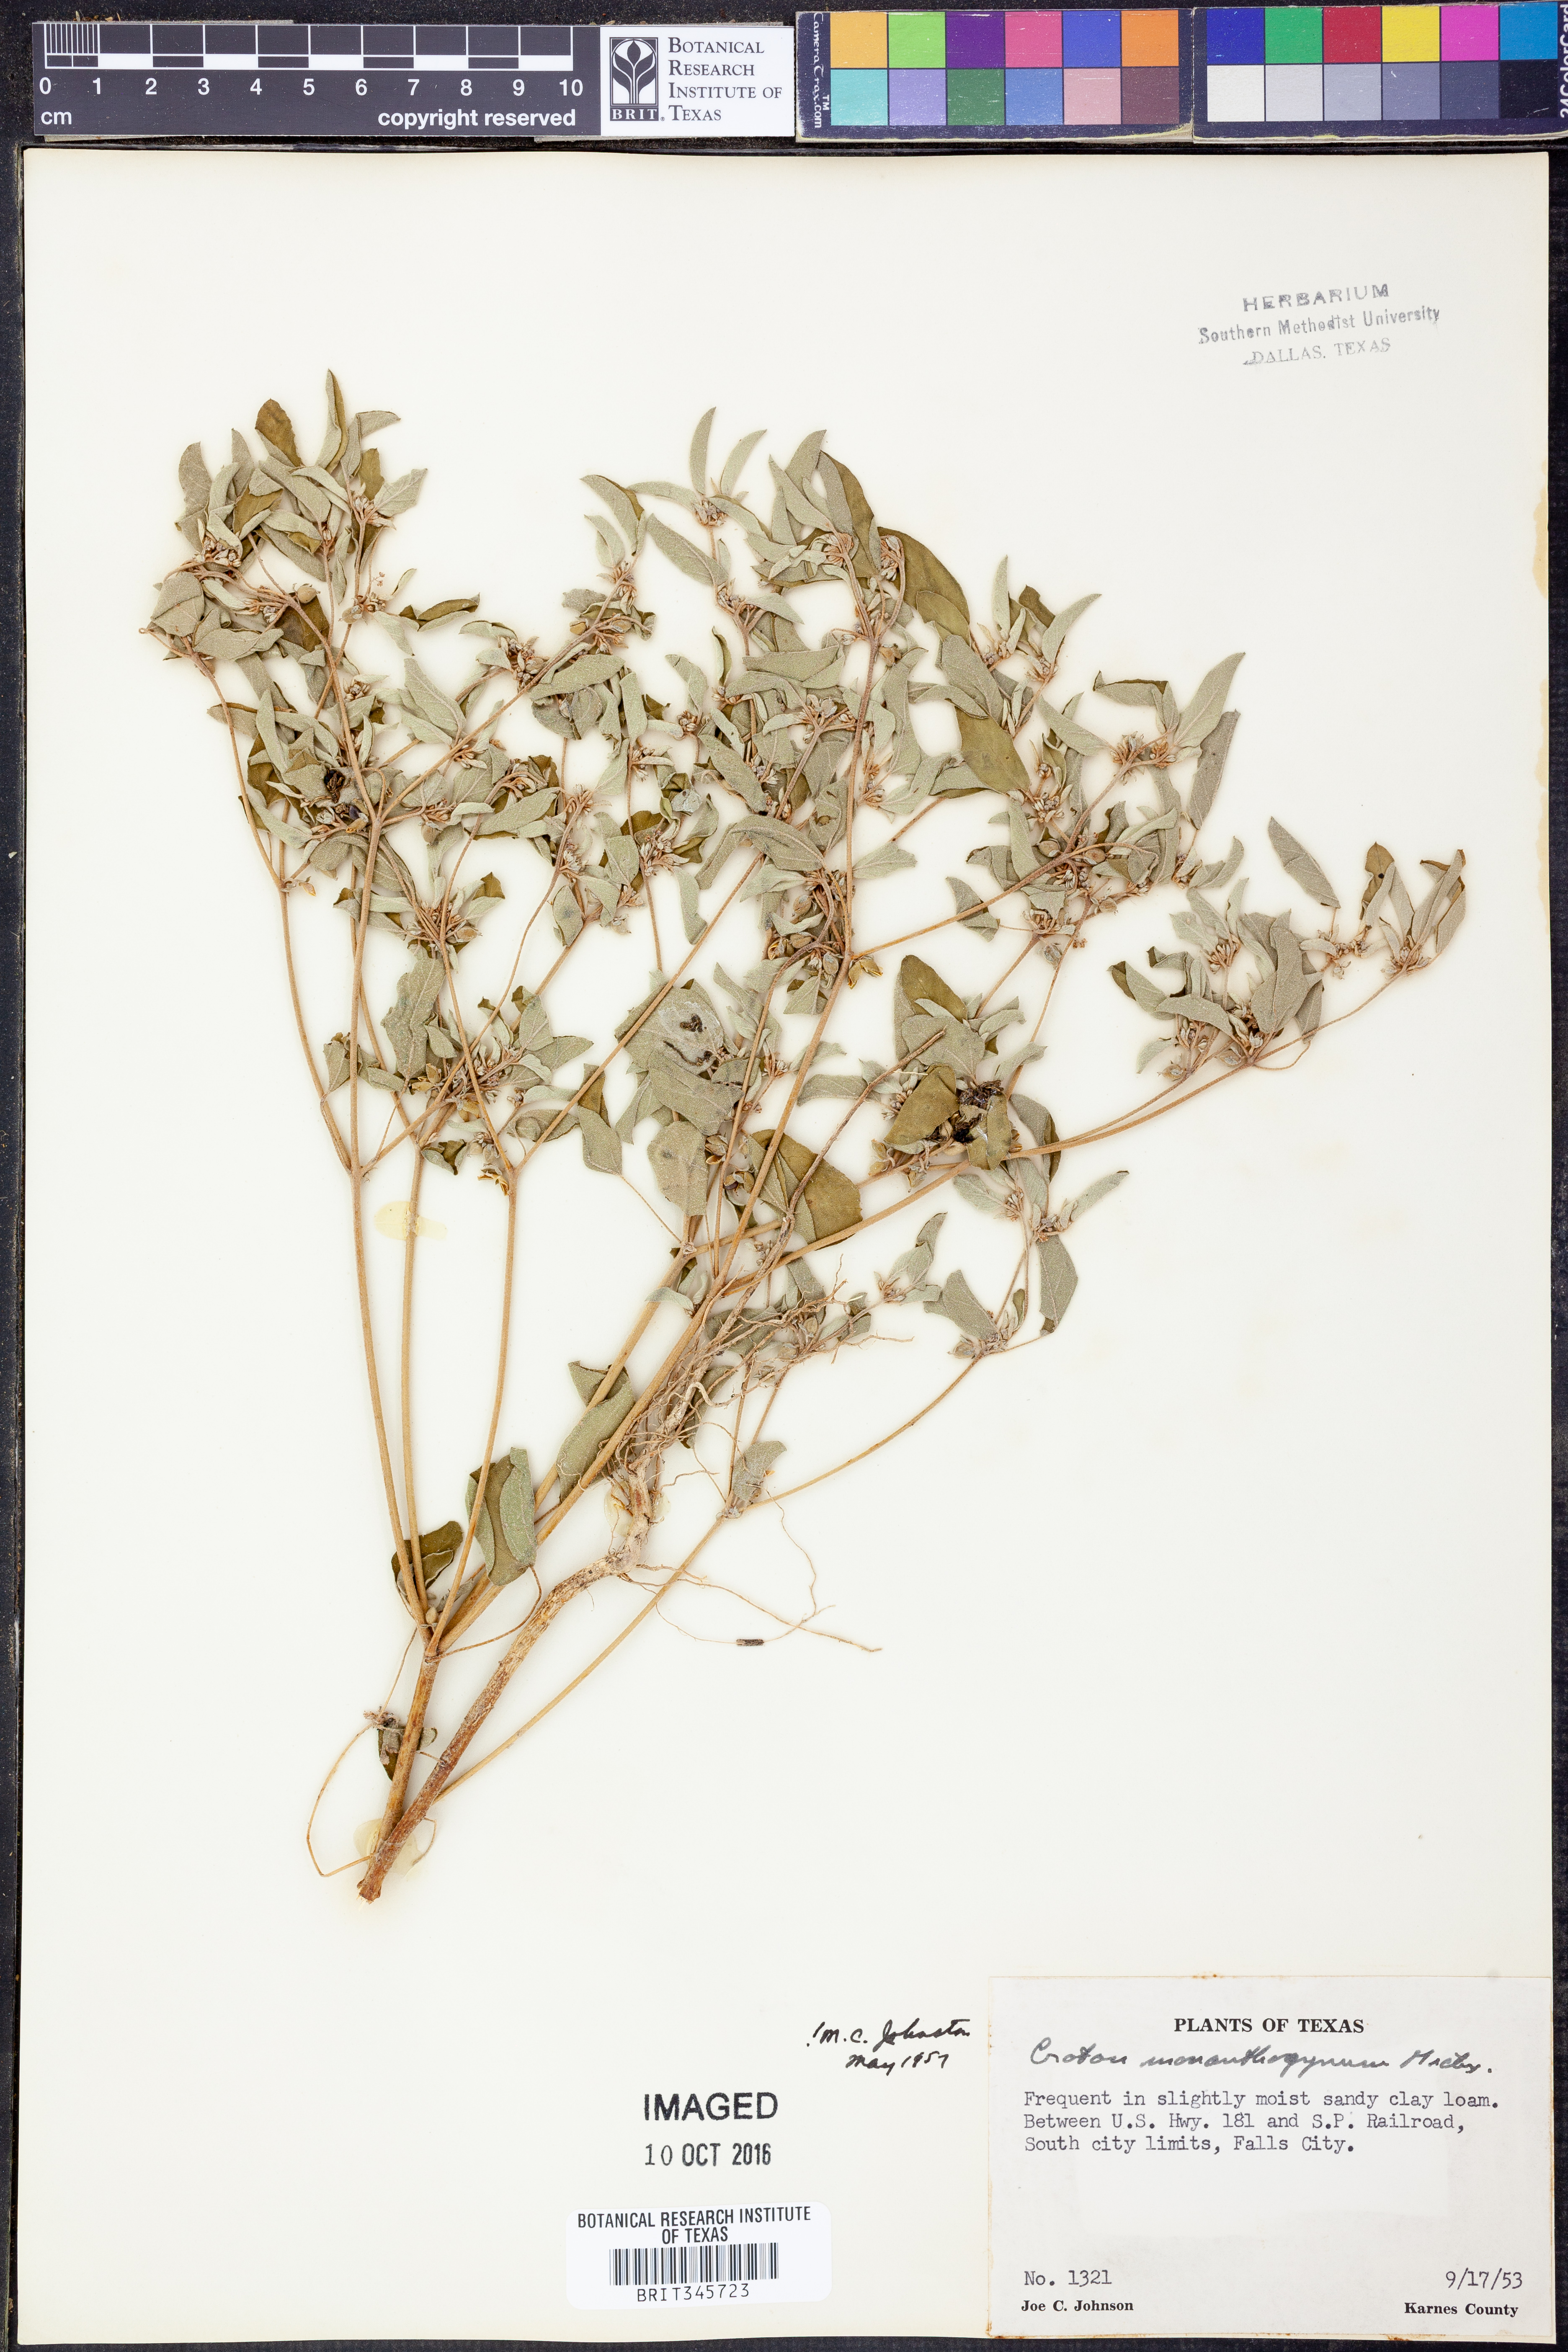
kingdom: Plantae
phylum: Tracheophyta
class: Magnoliopsida
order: Malpighiales
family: Euphorbiaceae
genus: Croton
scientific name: Croton monanthogynus
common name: One-seed croton
